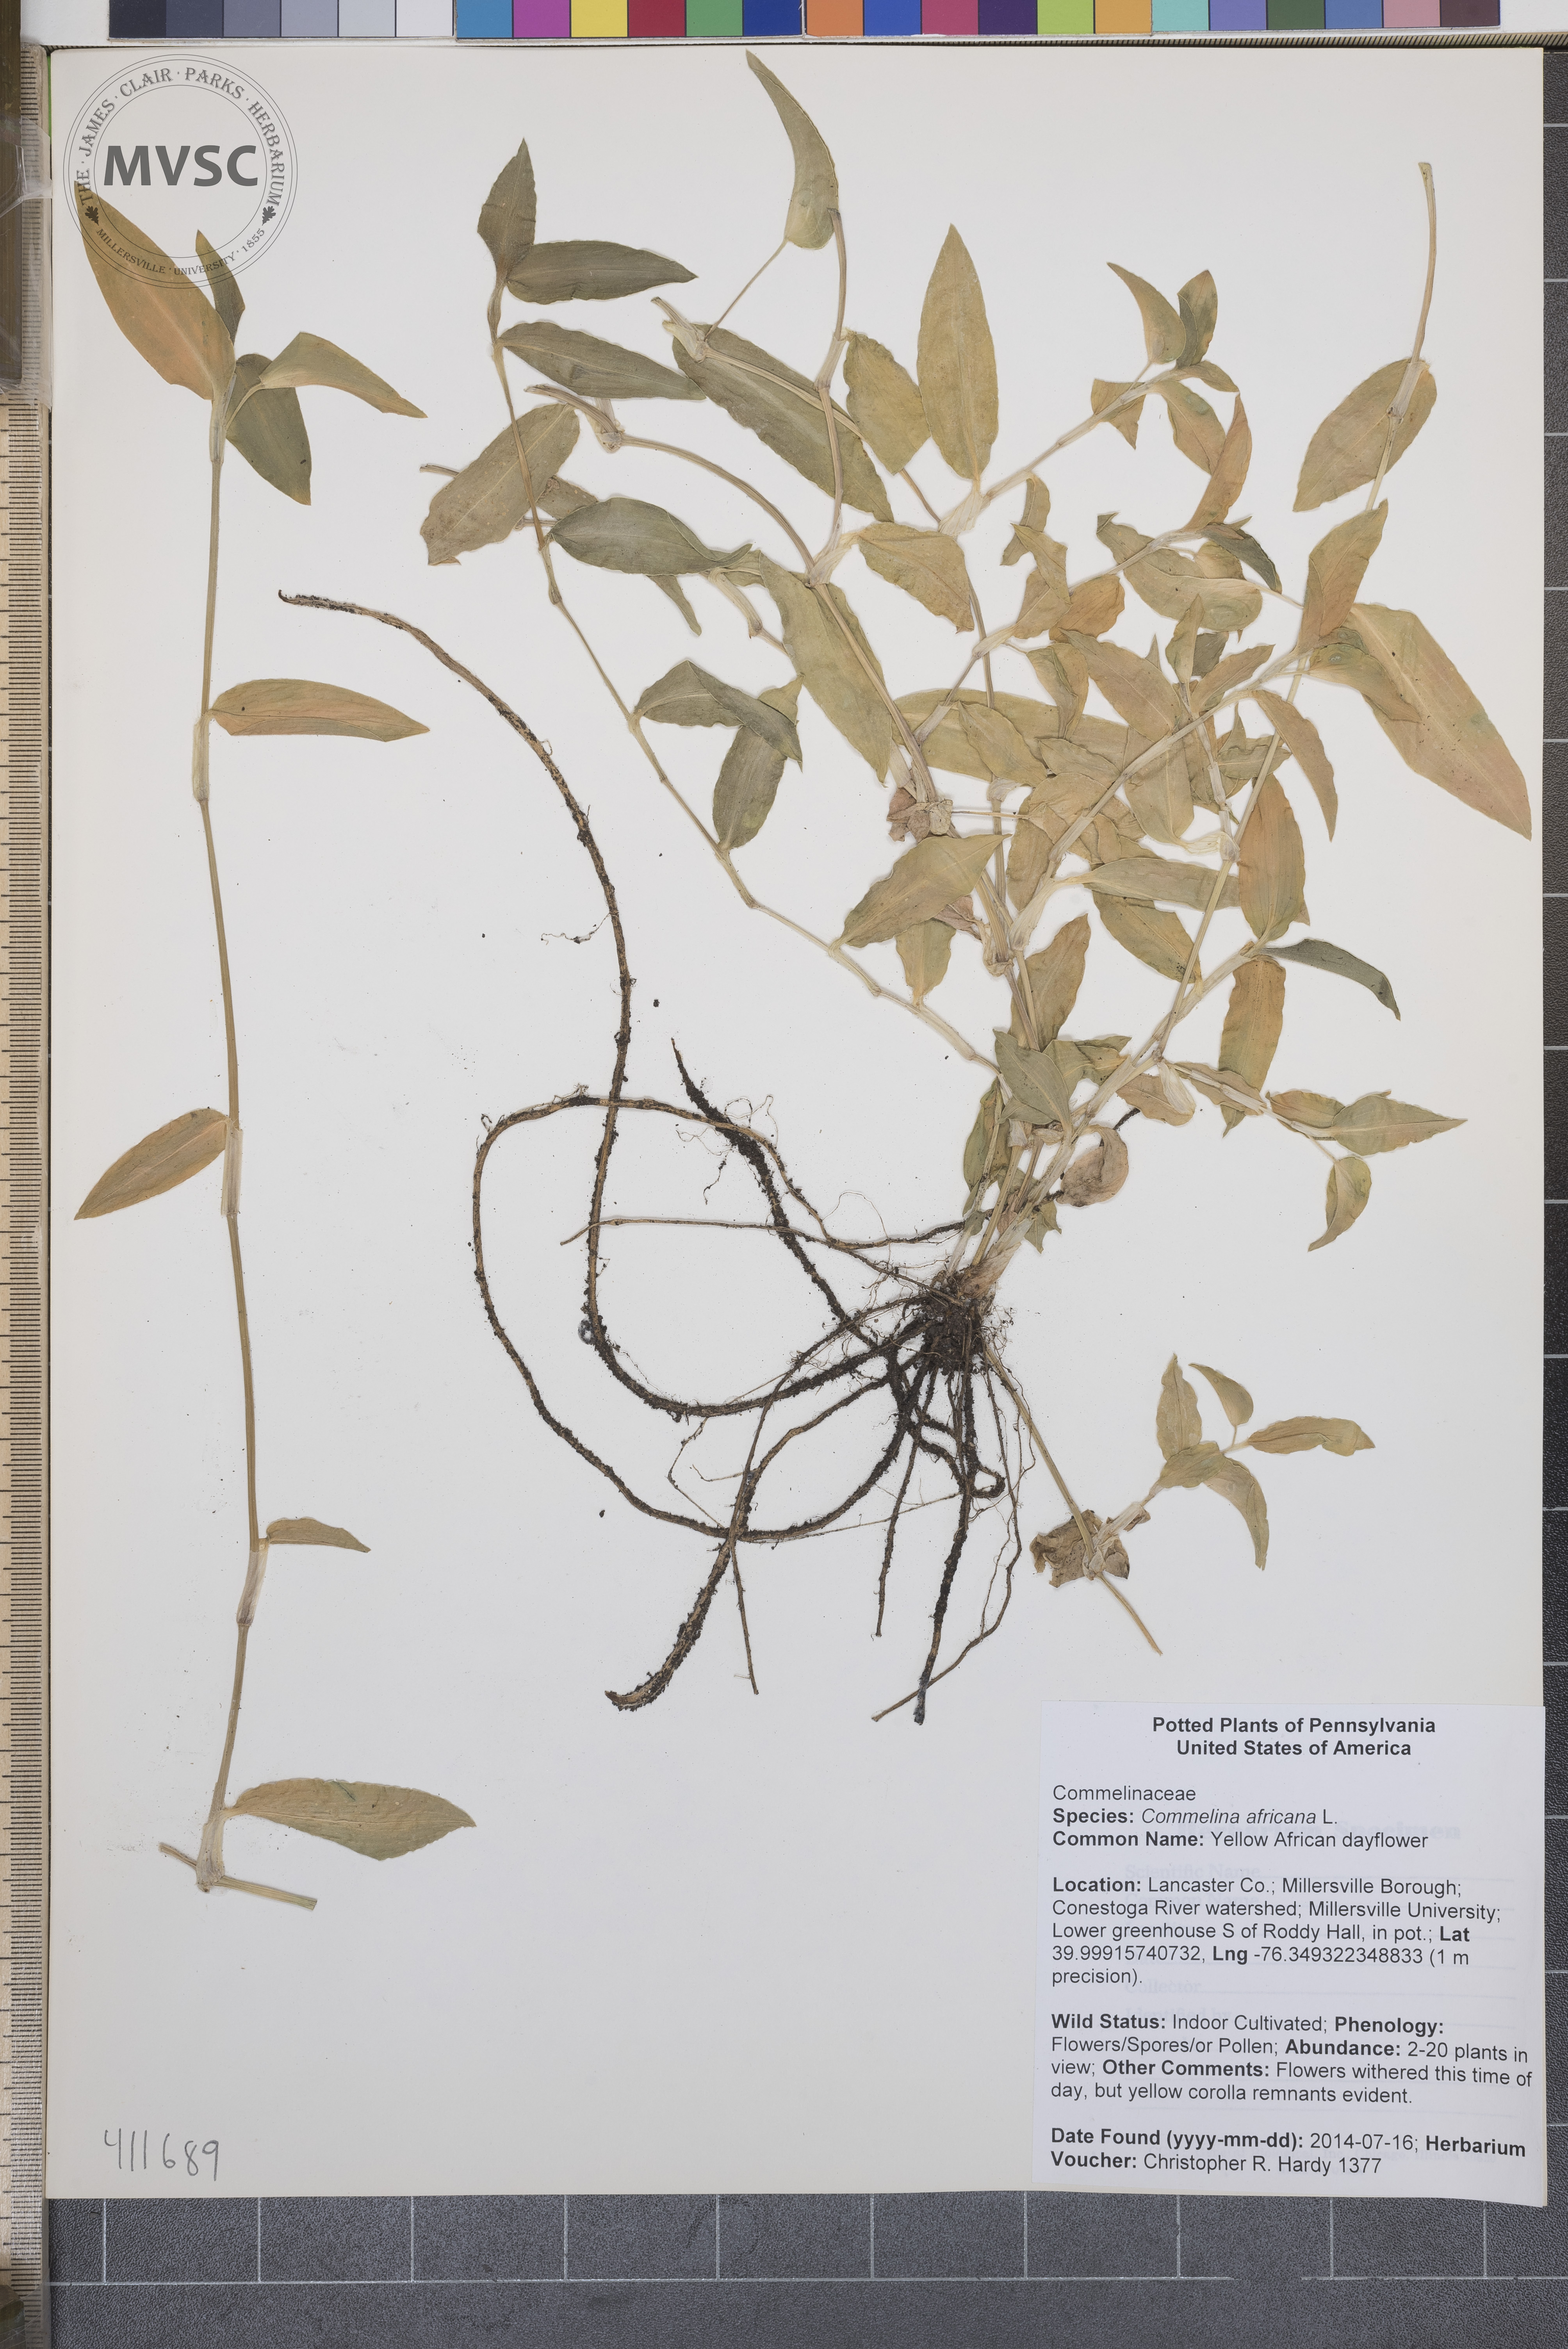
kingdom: Plantae
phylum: Tracheophyta
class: Liliopsida
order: Commelinales
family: Commelinaceae
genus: Commelina
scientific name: Commelina africana
